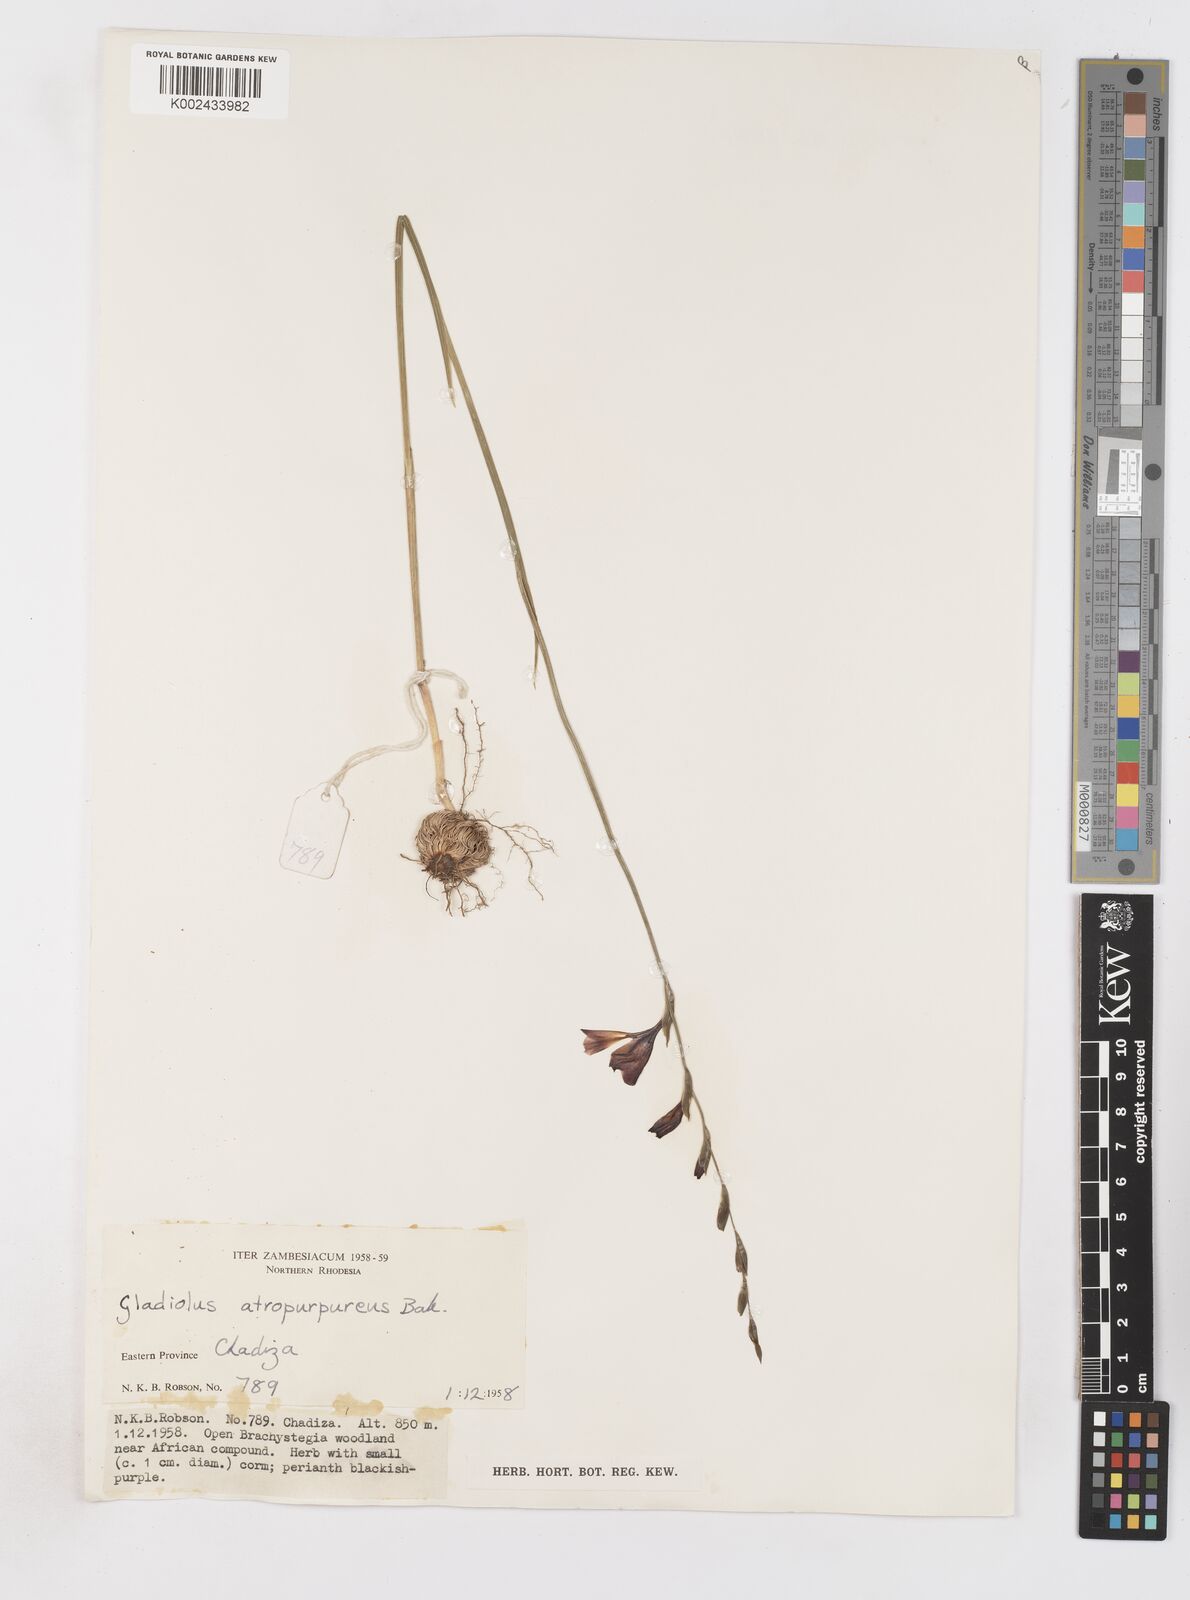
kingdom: Plantae
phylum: Tracheophyta
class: Liliopsida
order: Asparagales
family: Iridaceae
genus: Gladiolus
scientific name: Gladiolus atropurpureus
